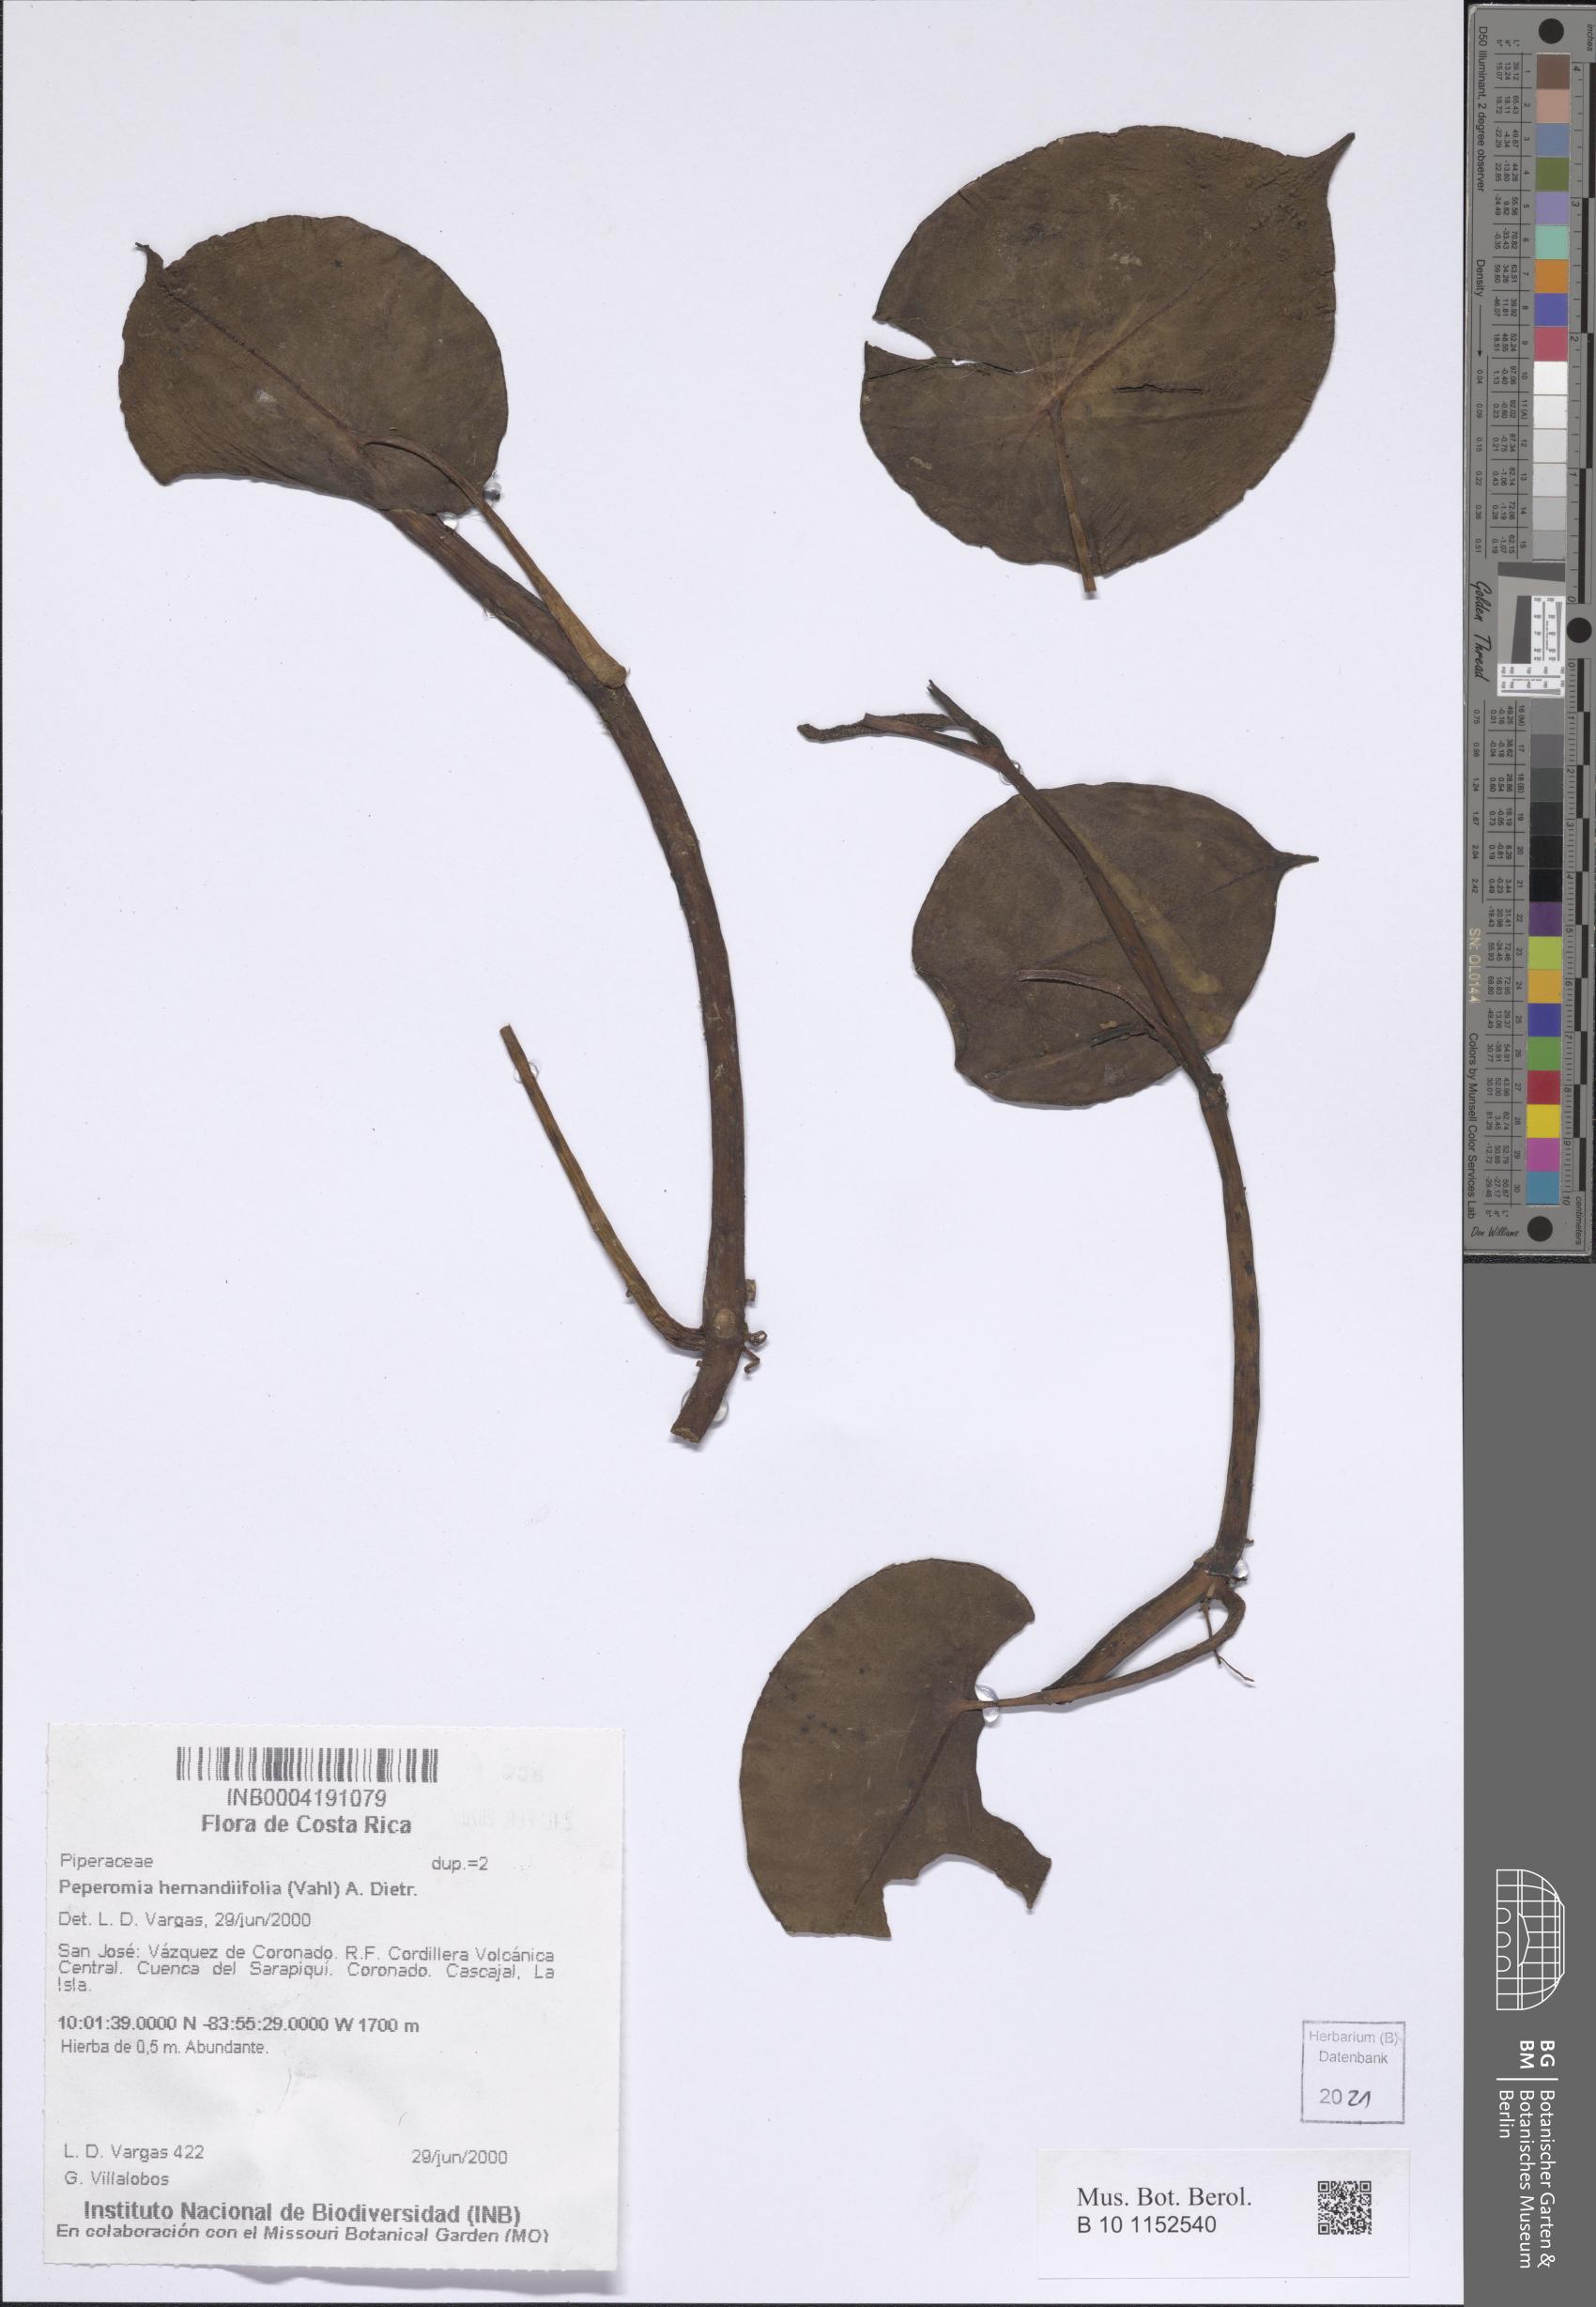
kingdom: Plantae
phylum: Tracheophyta
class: Magnoliopsida
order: Piperales
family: Piperaceae
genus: Peperomia
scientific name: Peperomia hernandiifolia
